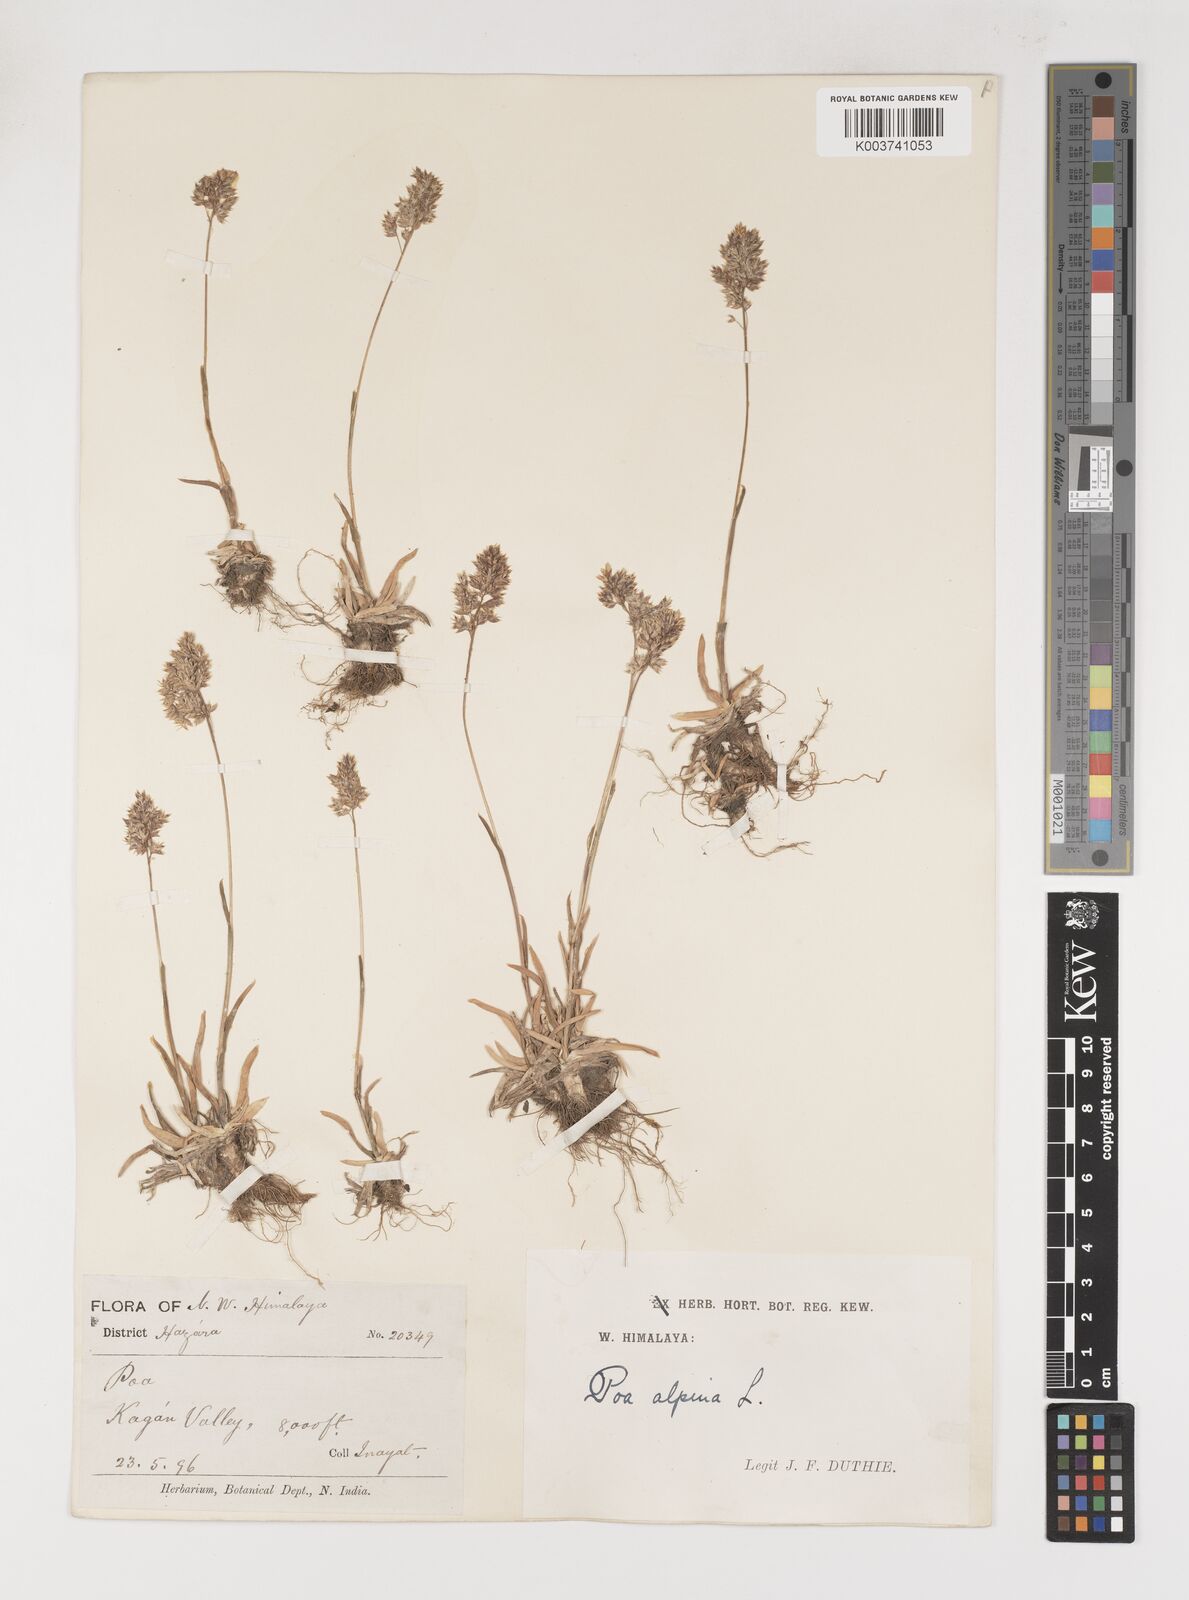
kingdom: Plantae
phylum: Tracheophyta
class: Liliopsida
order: Poales
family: Poaceae
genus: Poa
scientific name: Poa alpina
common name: Alpine bluegrass
